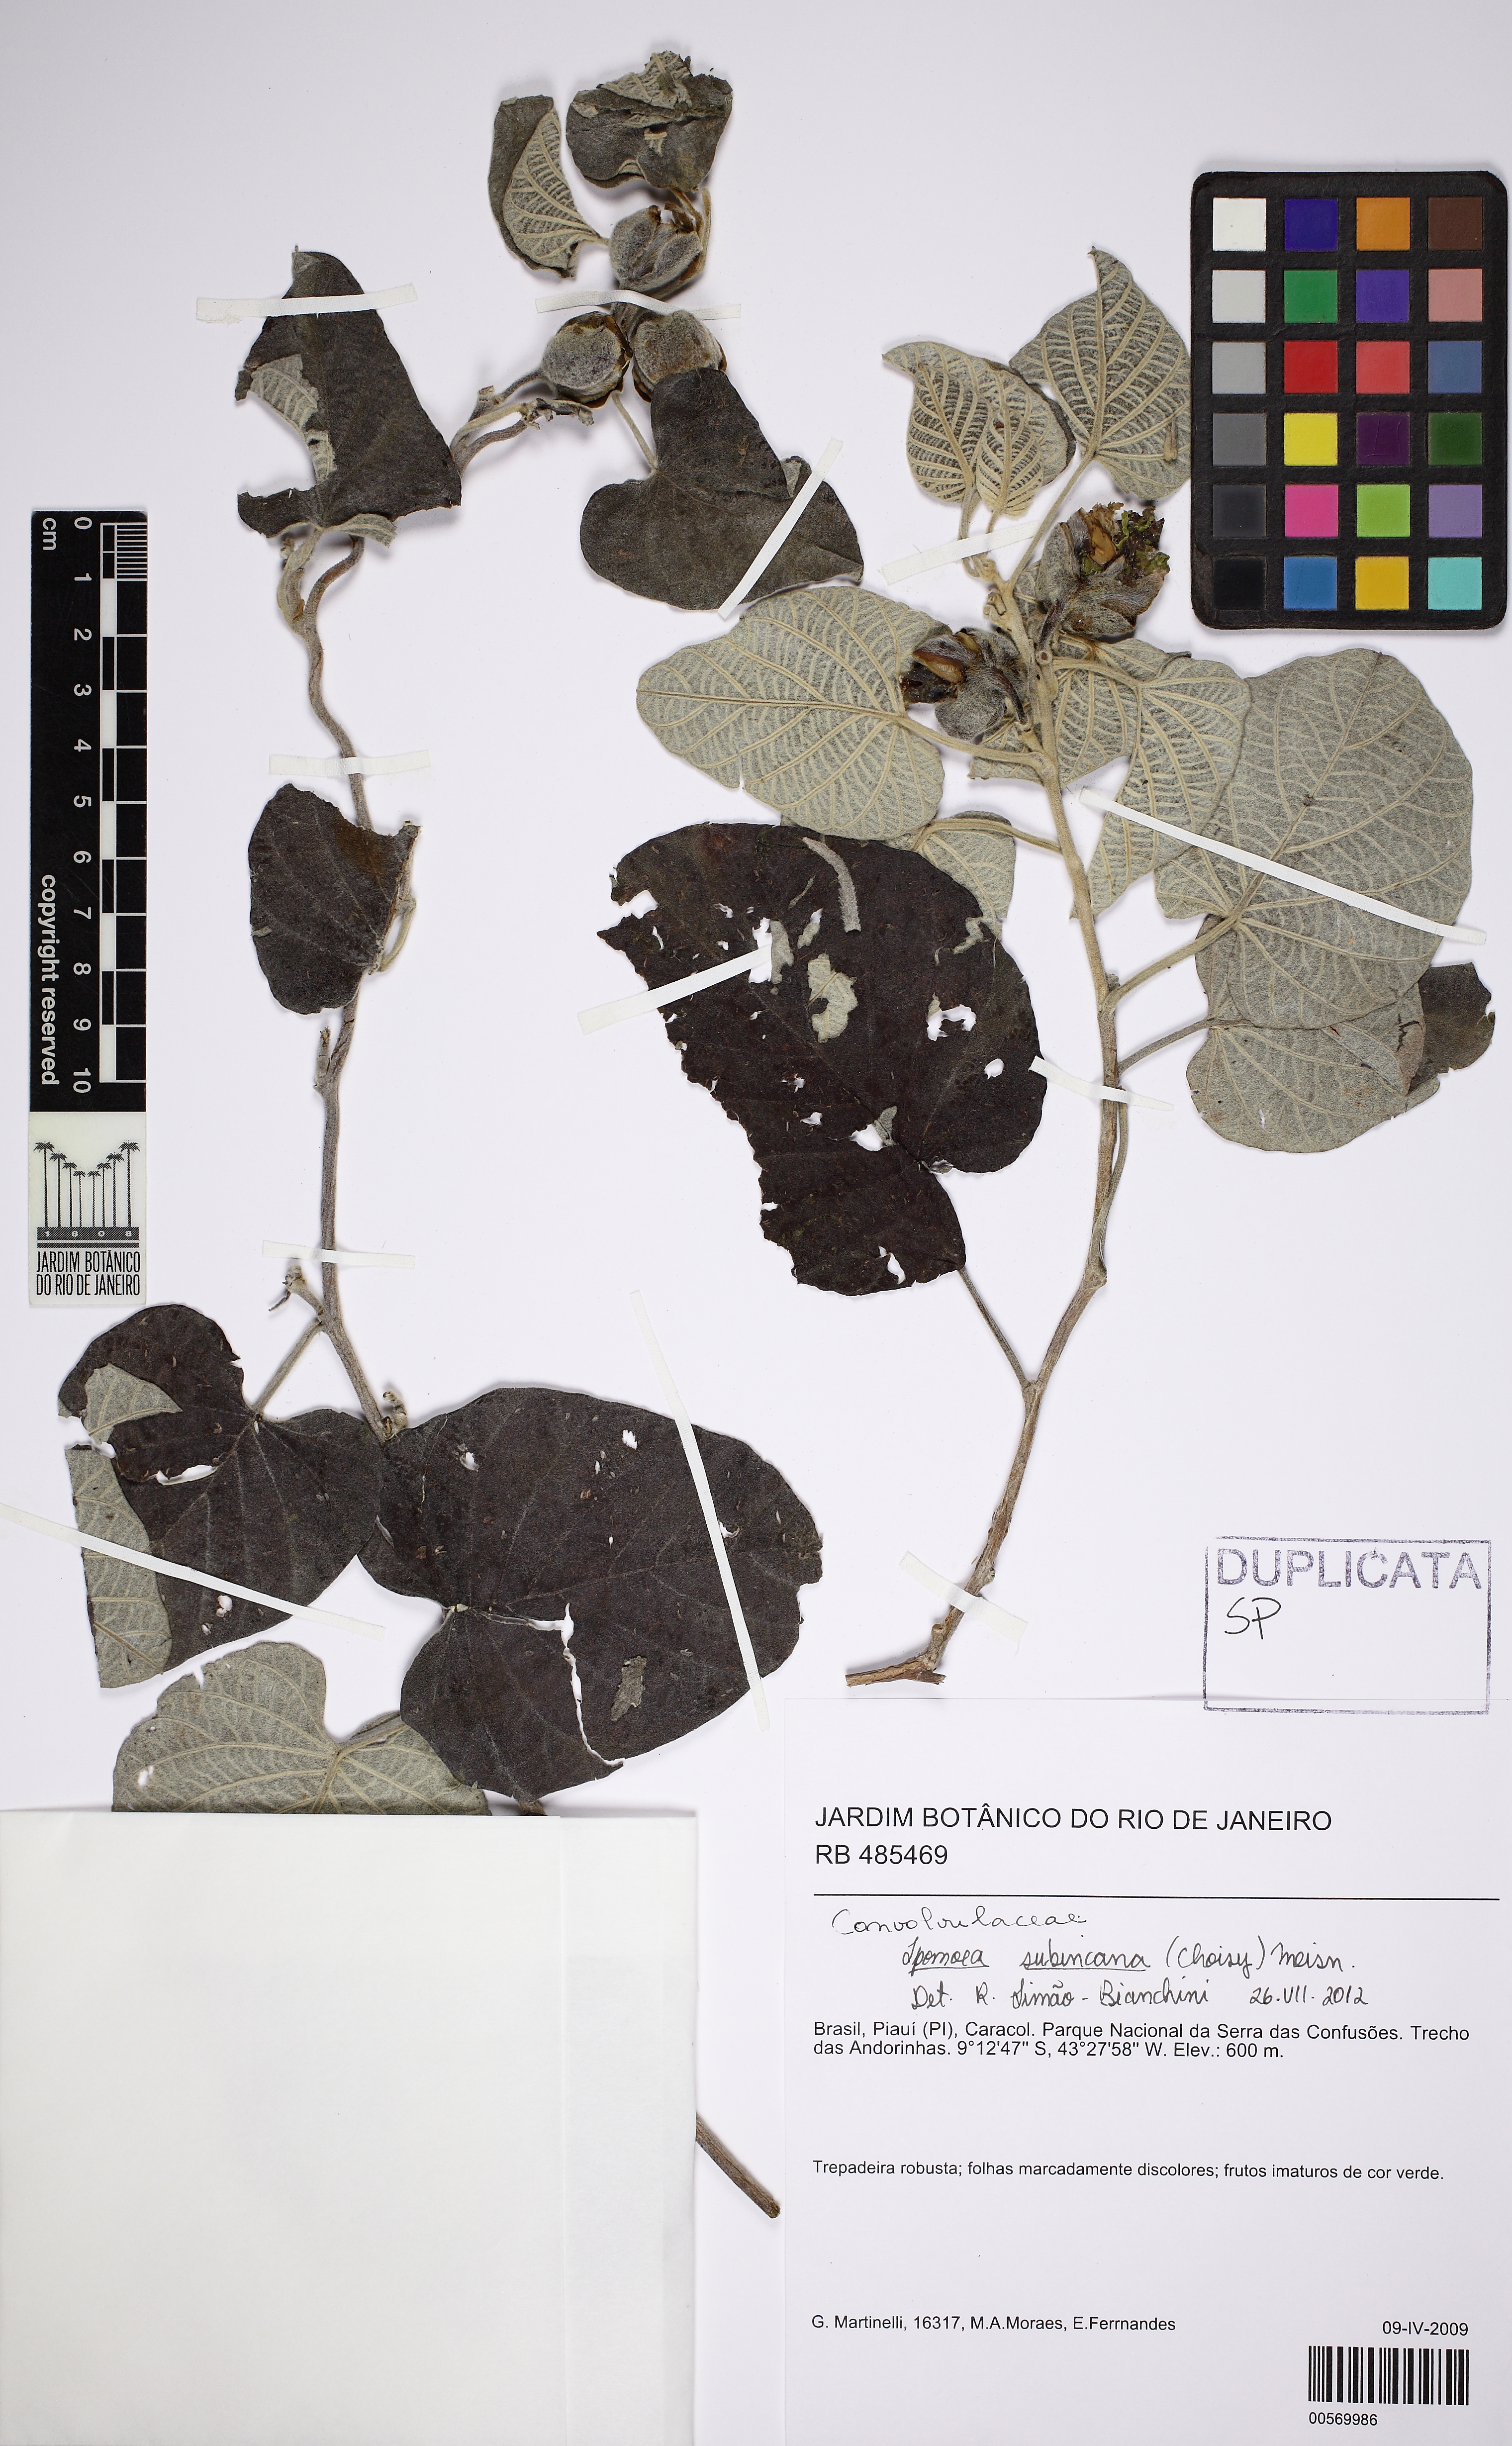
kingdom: Plantae
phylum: Tracheophyta
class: Magnoliopsida
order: Solanales
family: Convolvulaceae
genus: Ipomoea
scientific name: Ipomoea brasiliana
